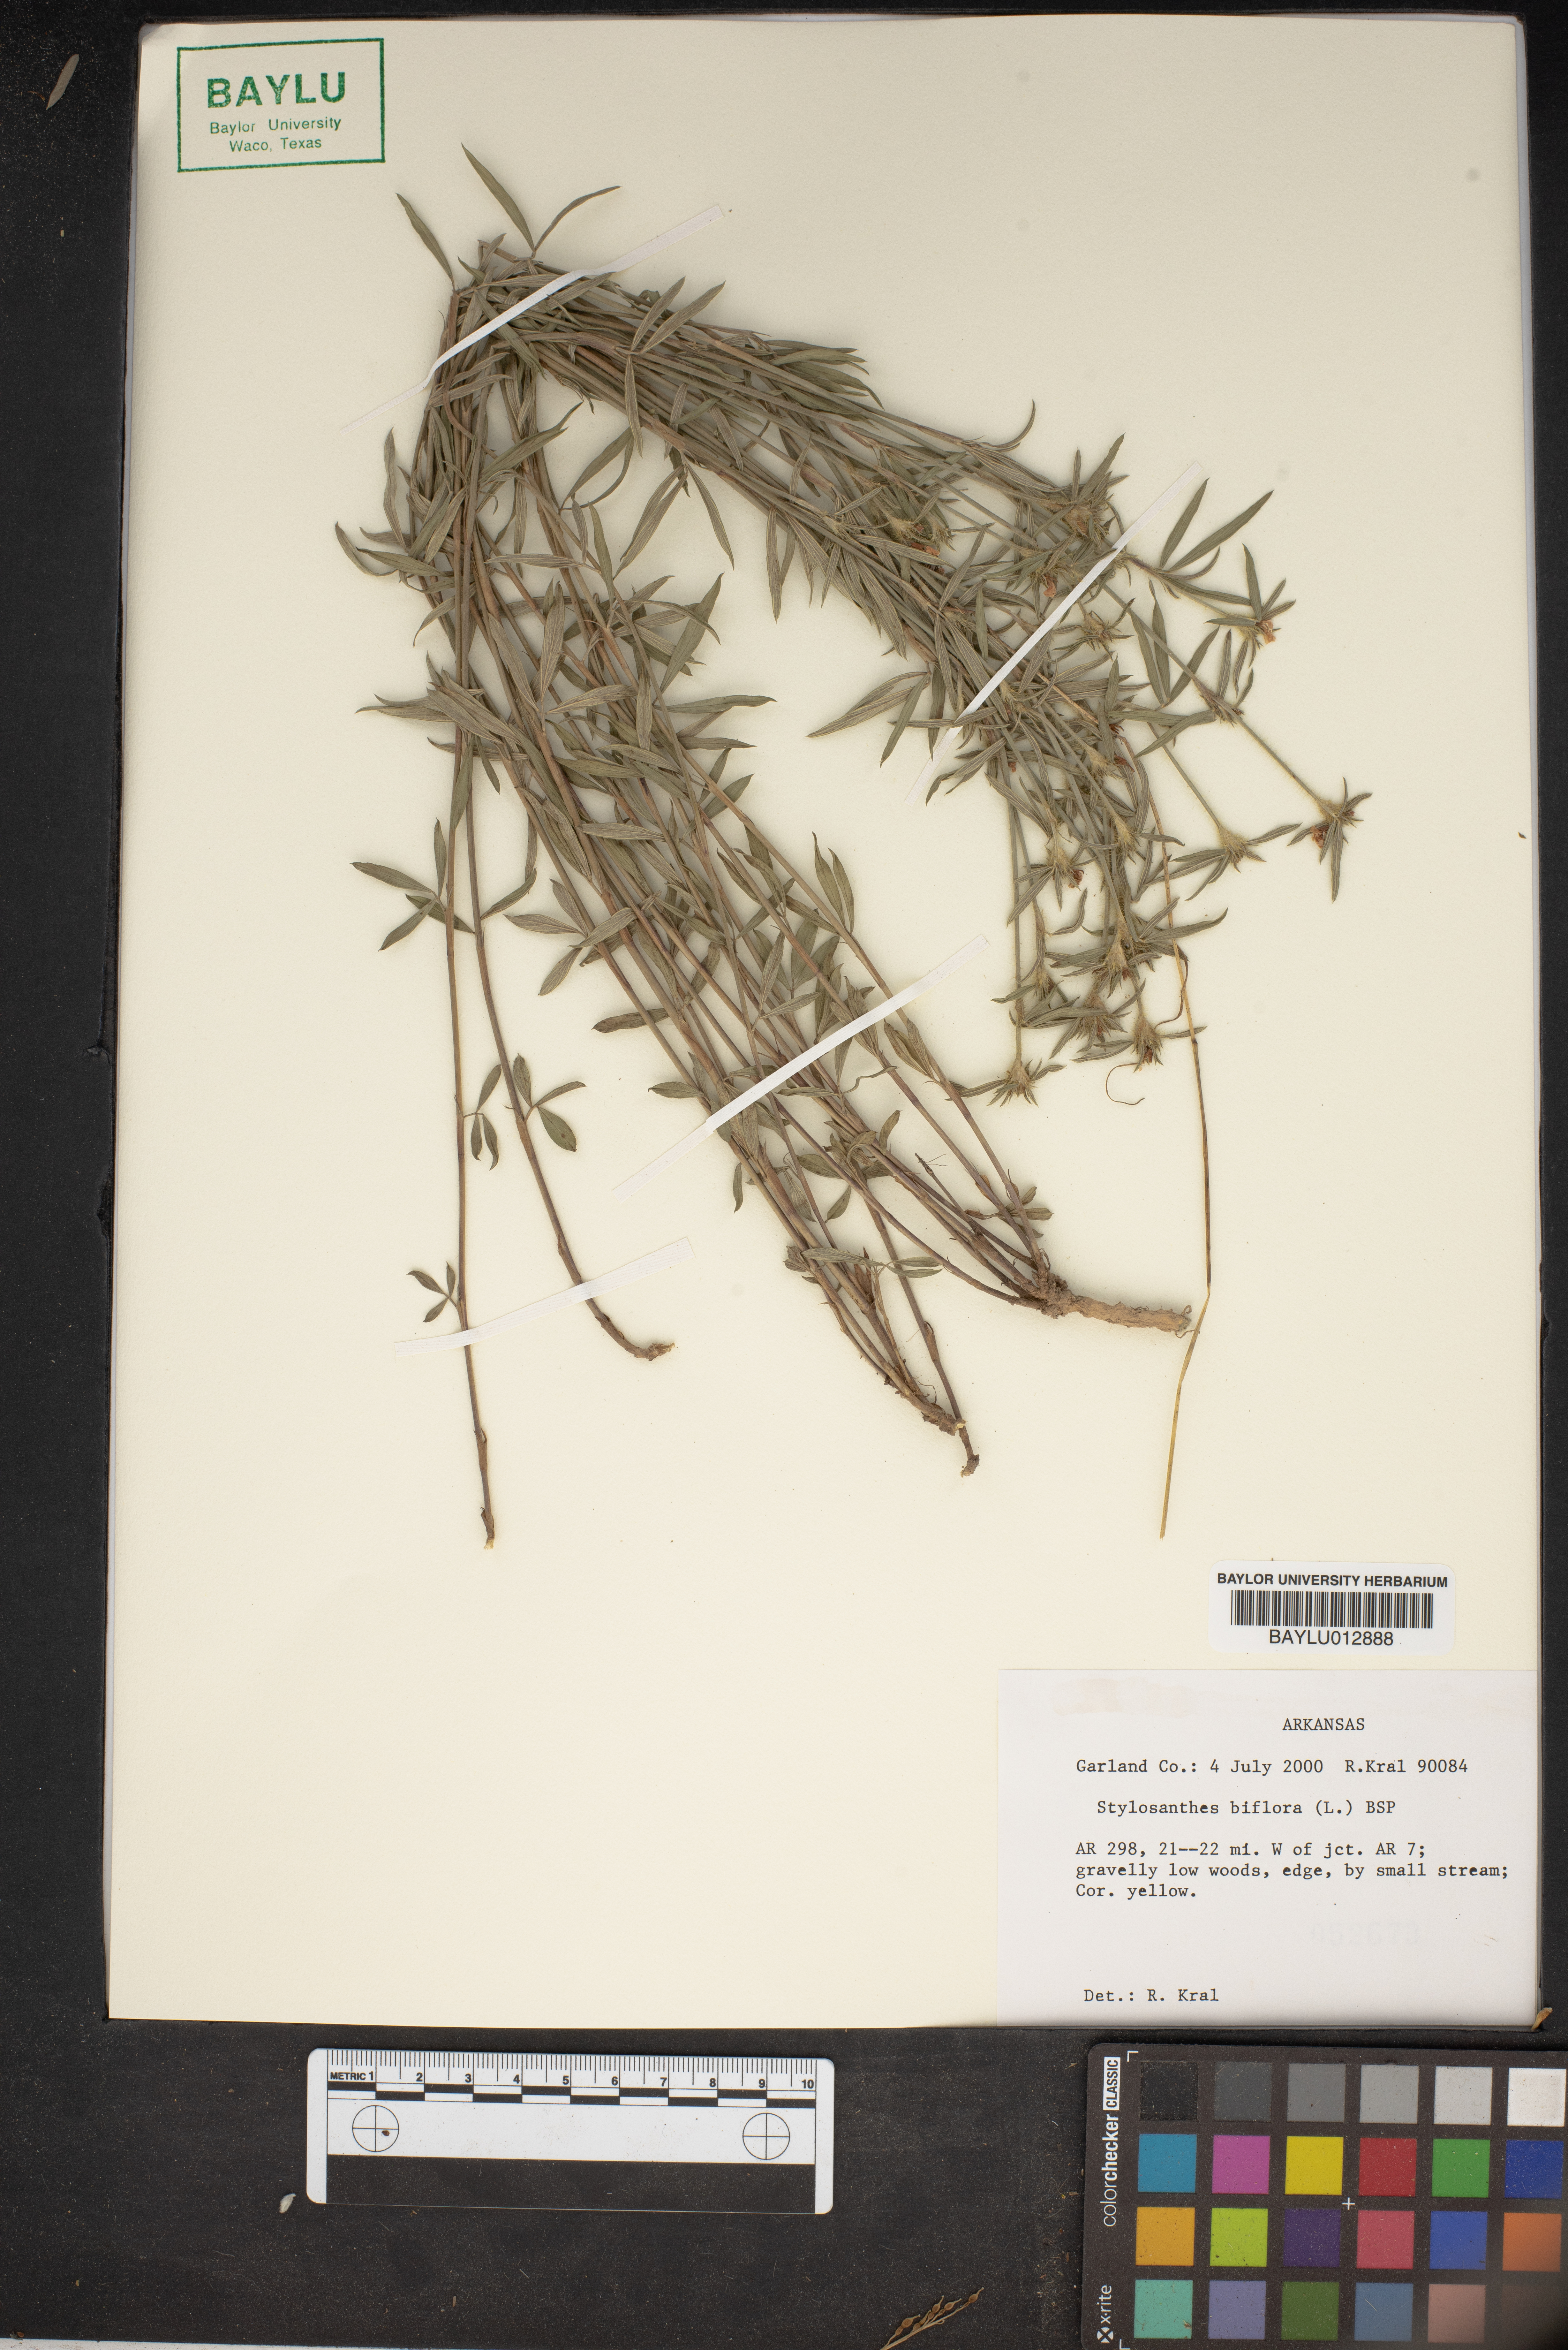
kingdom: Plantae
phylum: Tracheophyta
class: Magnoliopsida
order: Fabales
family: Fabaceae
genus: Stylosanthes
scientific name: Stylosanthes biflora
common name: Two-flower pencil-flower
